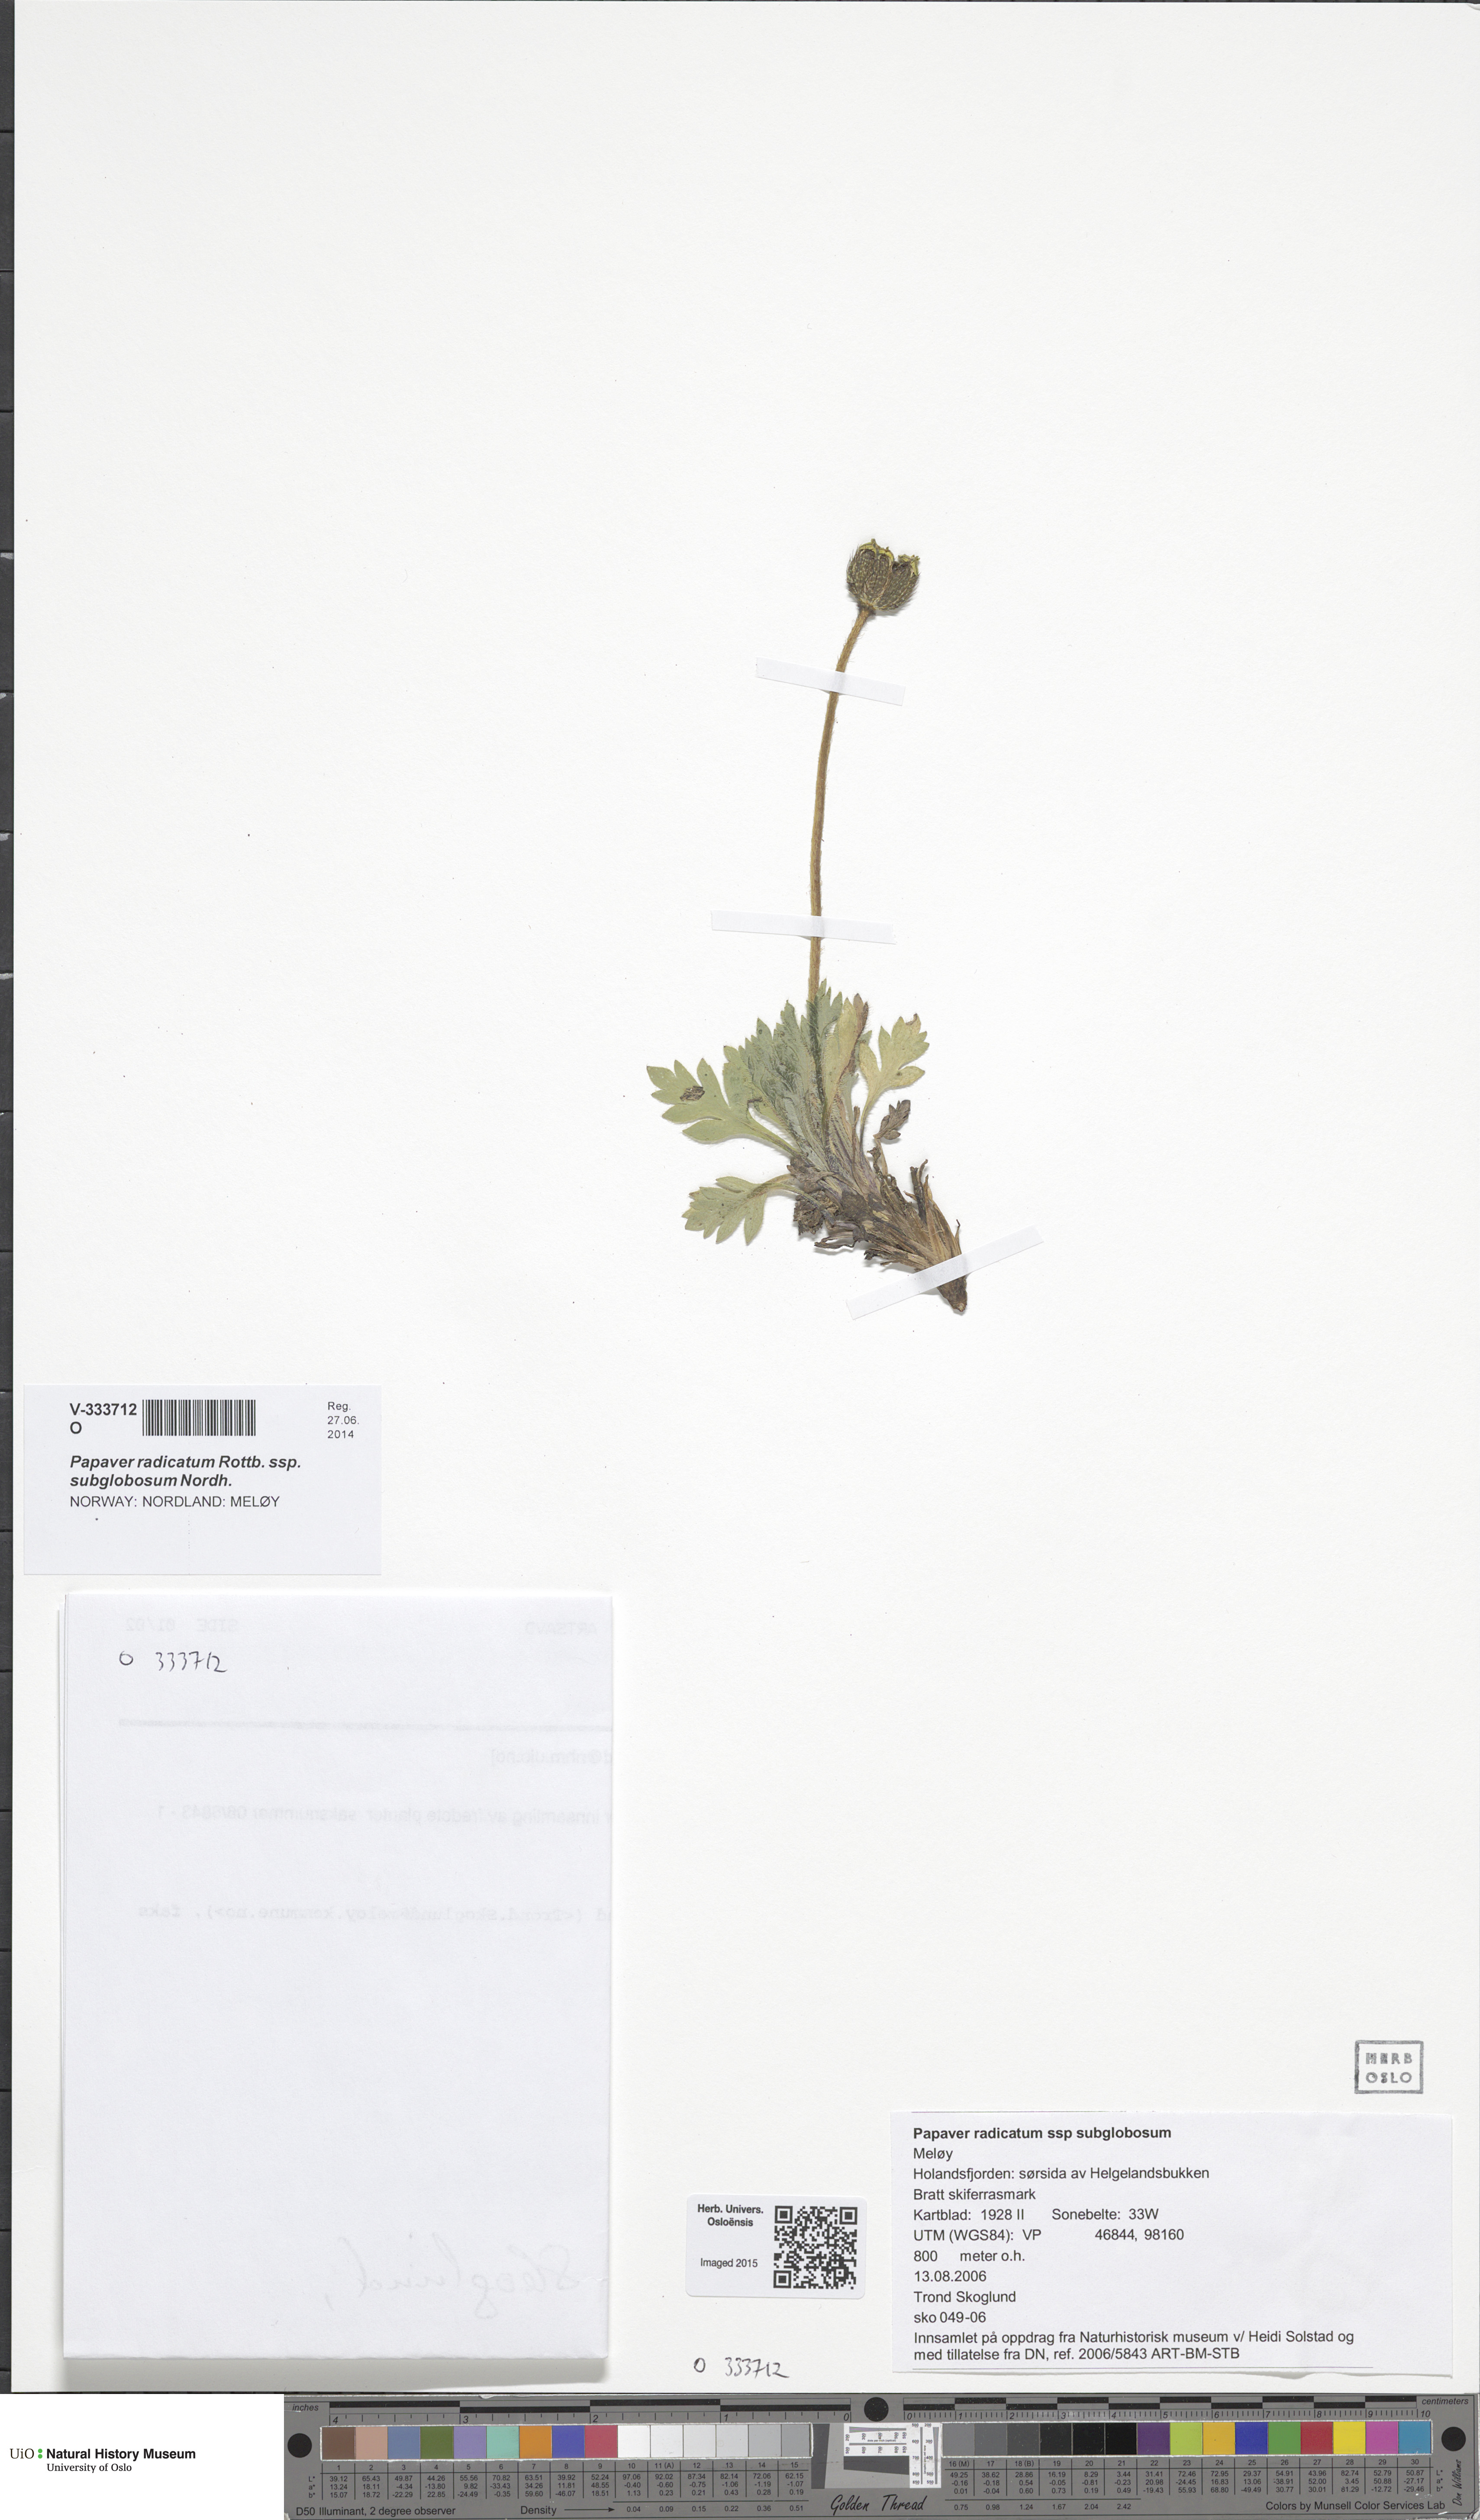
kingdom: Plantae
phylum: Tracheophyta
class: Magnoliopsida
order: Ranunculales
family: Papaveraceae
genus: Papaver
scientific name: Papaver radicatum
